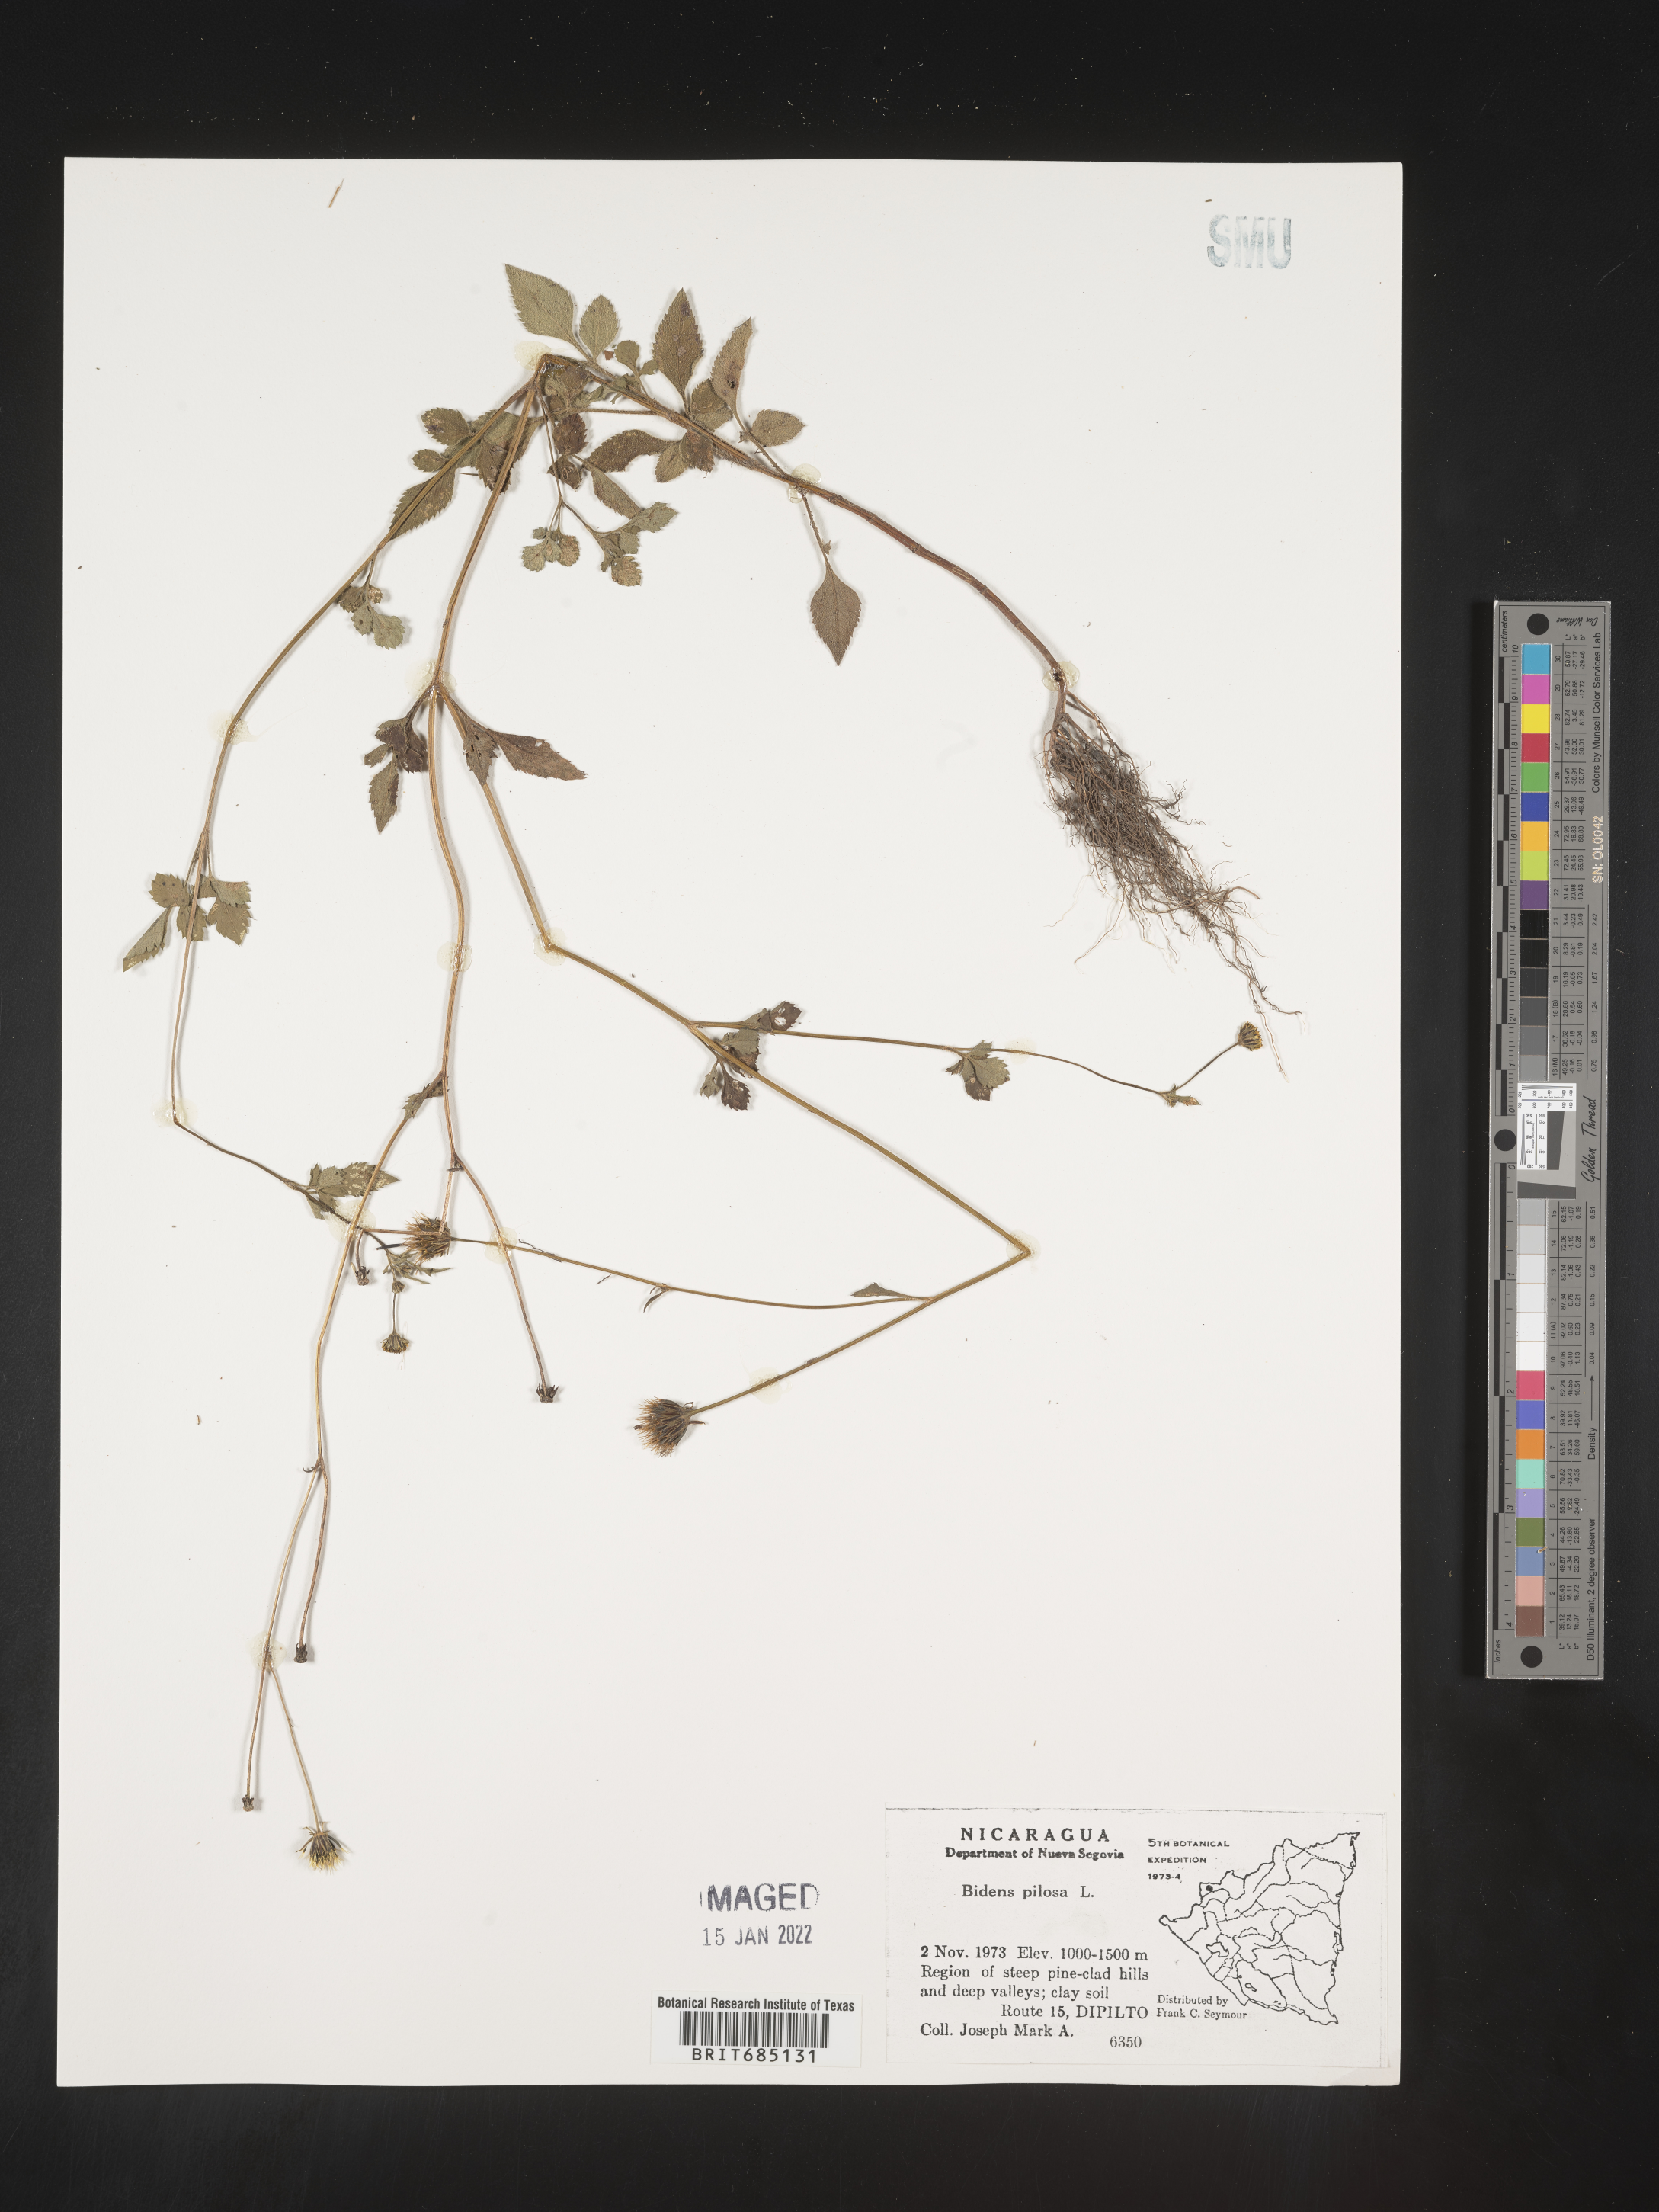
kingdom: Plantae
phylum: Tracheophyta
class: Magnoliopsida
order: Asterales
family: Asteraceae
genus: Bidens
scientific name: Bidens
